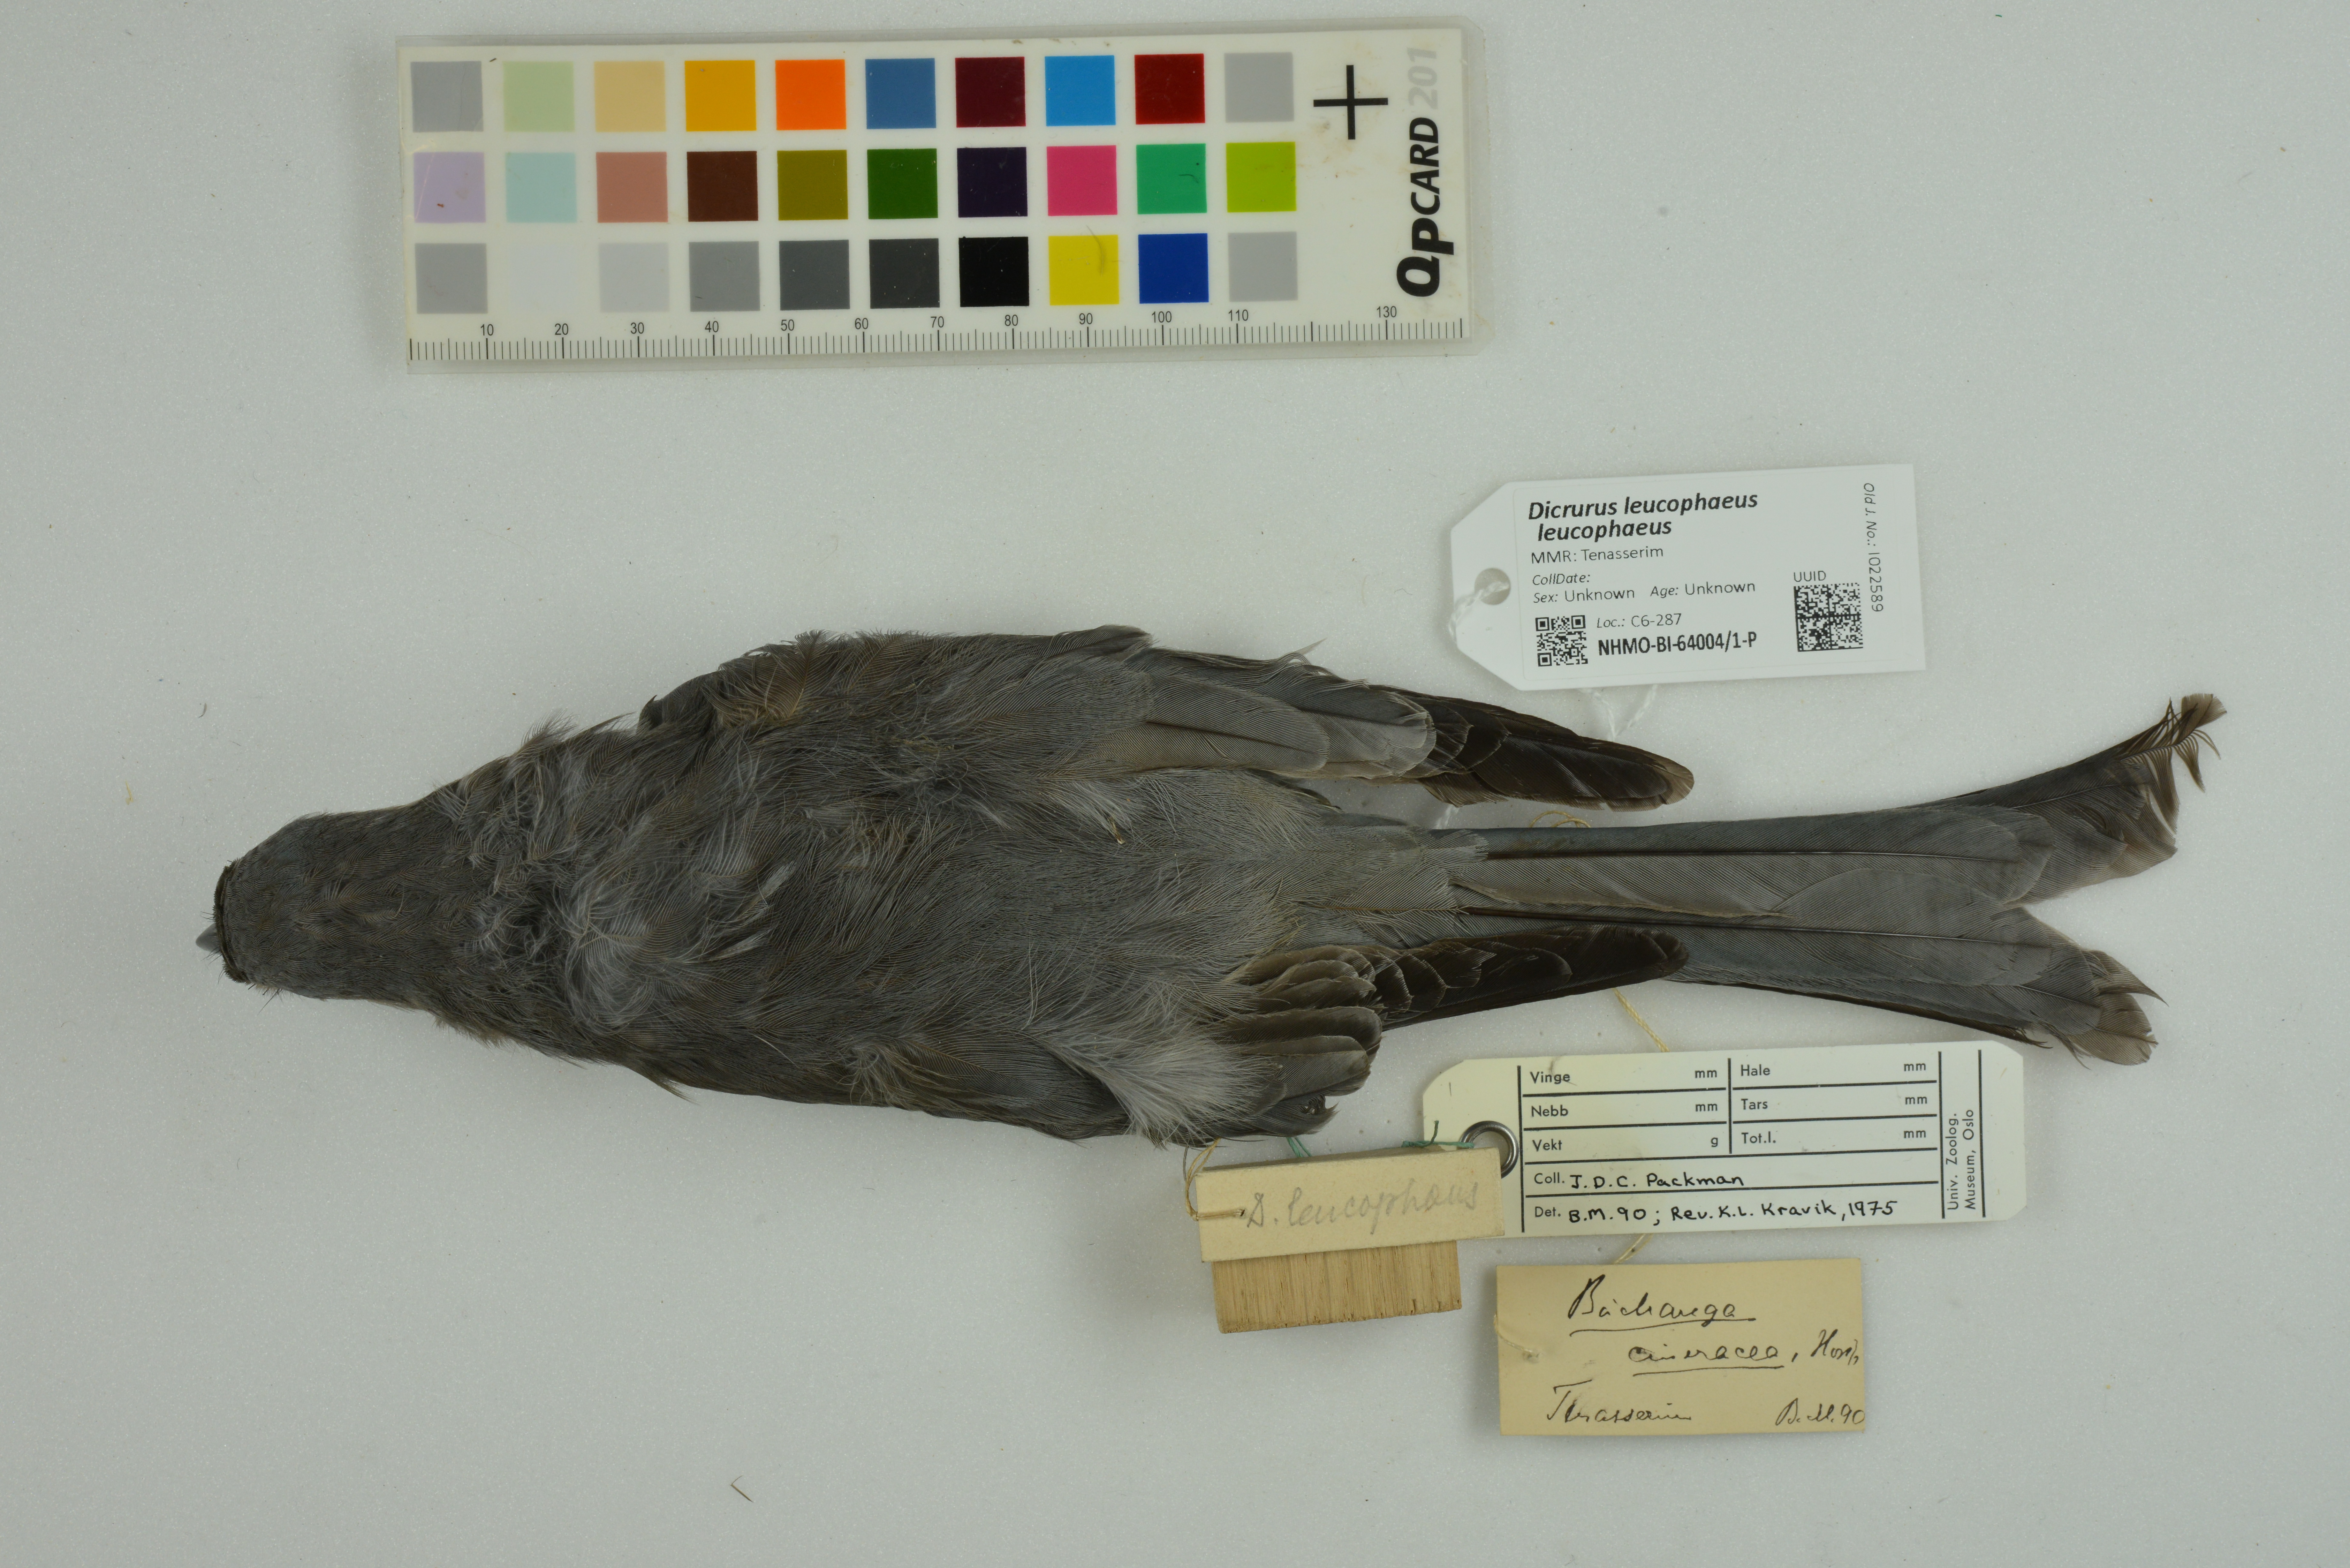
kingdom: Animalia
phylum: Chordata
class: Aves
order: Passeriformes
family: Dicruridae
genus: Dicrurus
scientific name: Dicrurus leucophaeus
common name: Ashy drongo
